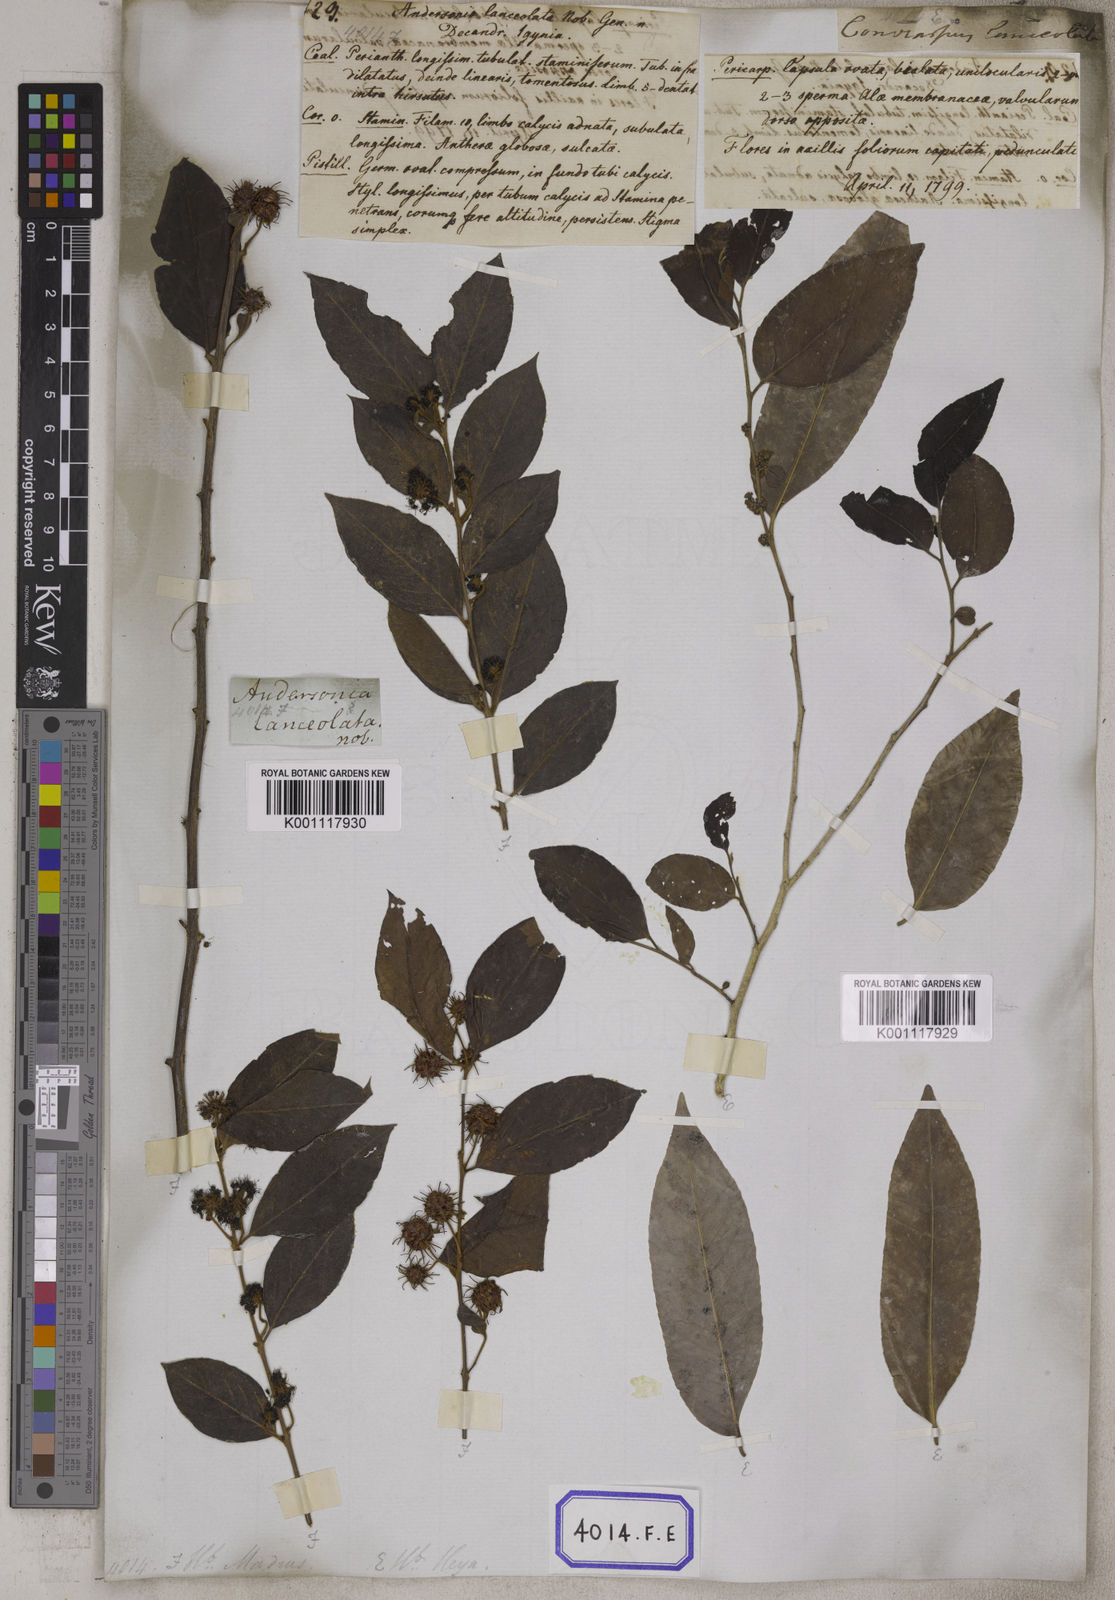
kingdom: Plantae
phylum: Tracheophyta
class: Magnoliopsida
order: Myrtales
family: Combretaceae
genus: Anogeissus
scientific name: Anogeissus
